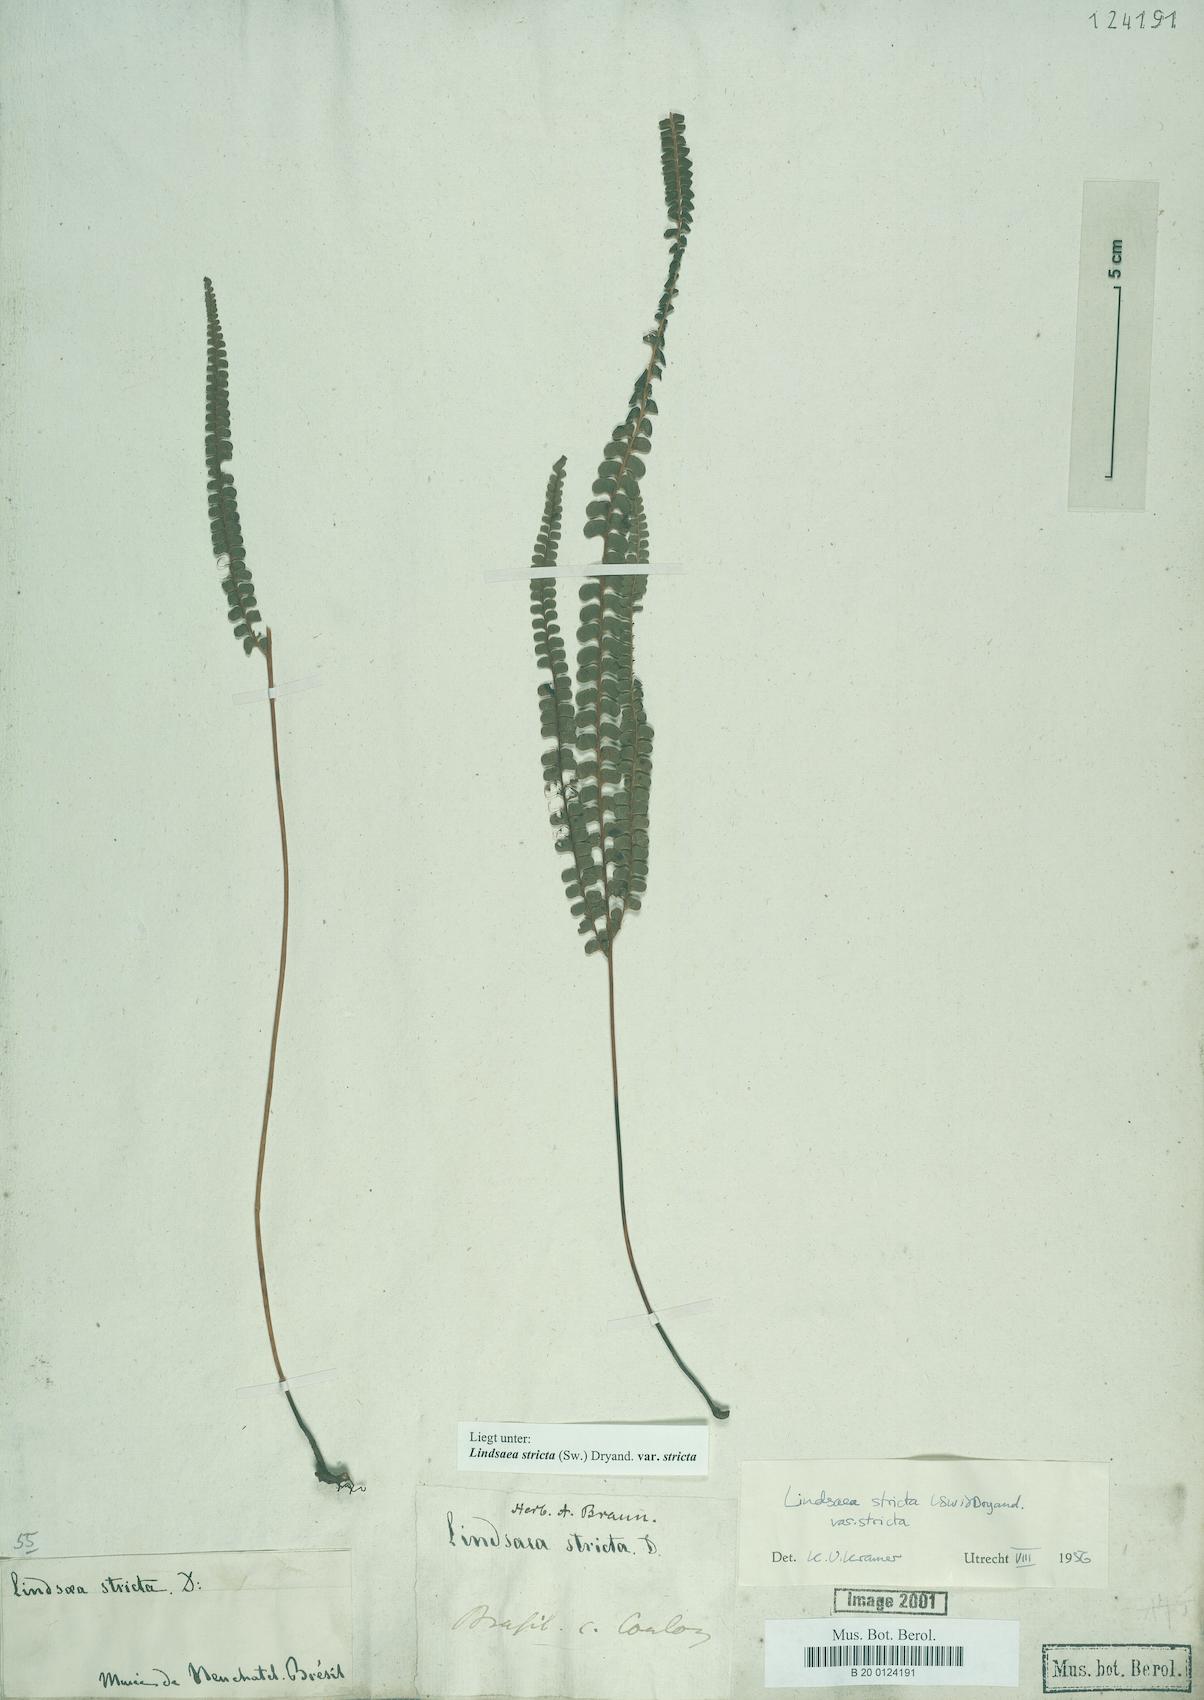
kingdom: Plantae
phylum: Tracheophyta
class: Polypodiopsida
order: Polypodiales
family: Lindsaeaceae
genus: Lindsaea
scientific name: Lindsaea stricta
